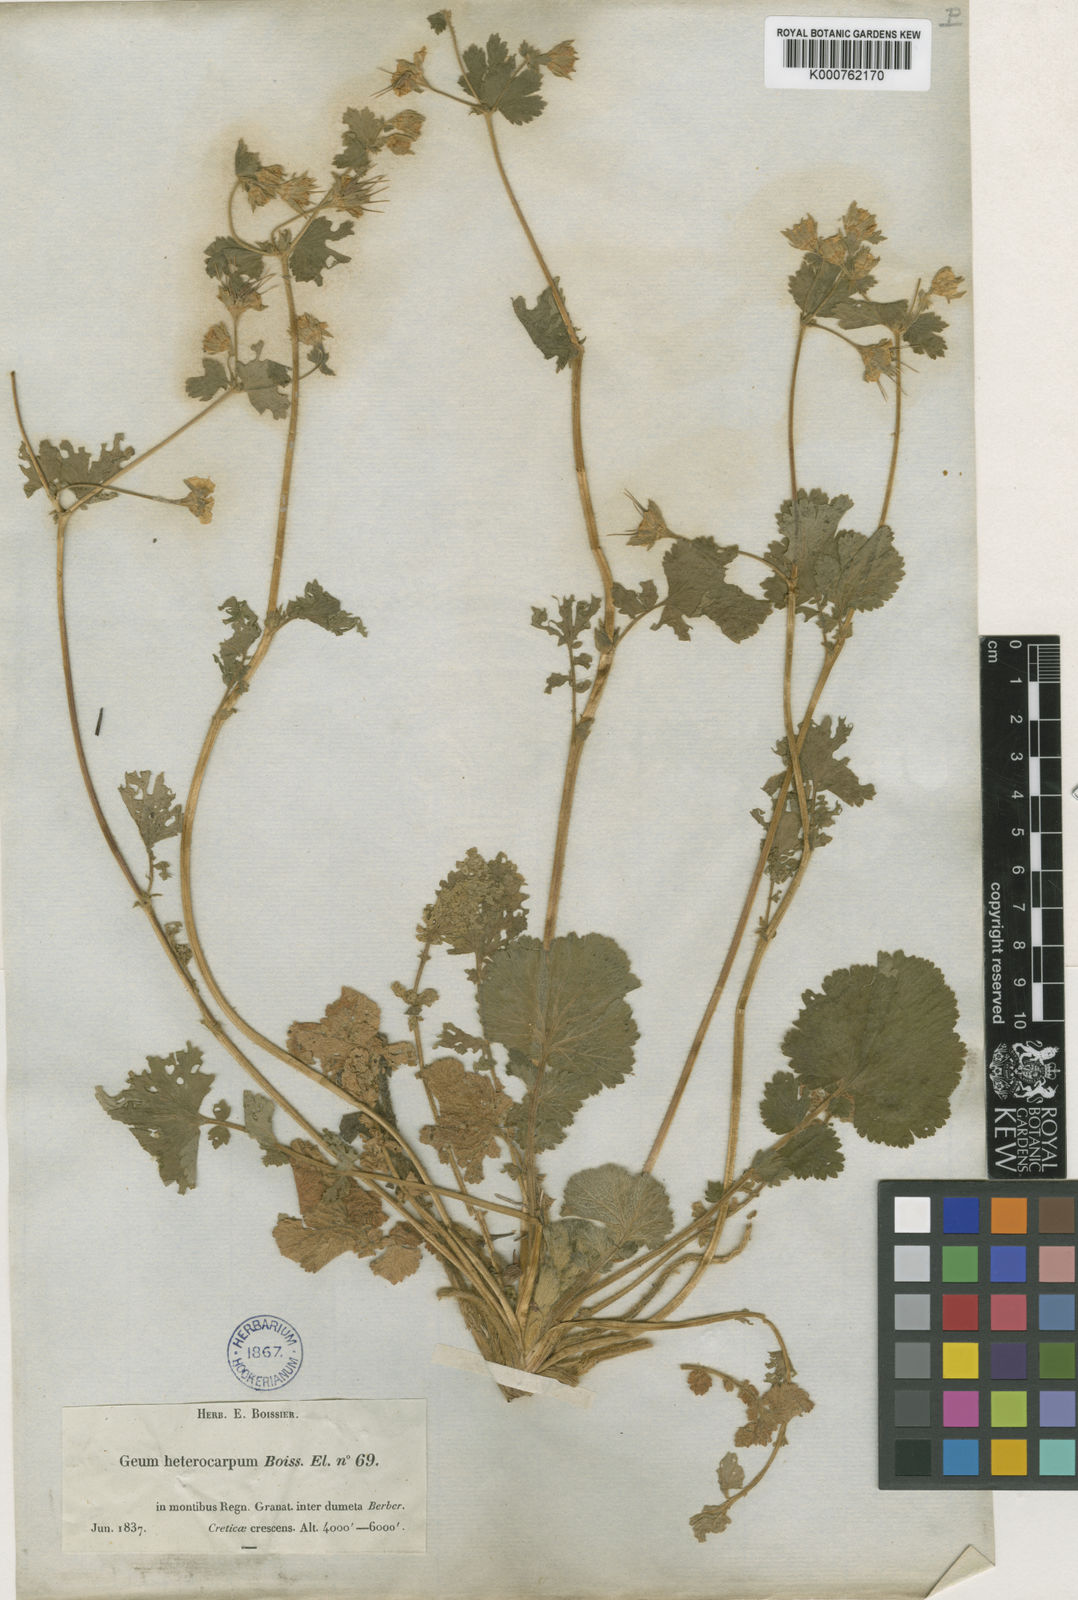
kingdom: Plantae
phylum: Tracheophyta
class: Magnoliopsida
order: Rosales
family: Rosaceae
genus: Geum
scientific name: Geum heterocarpum
